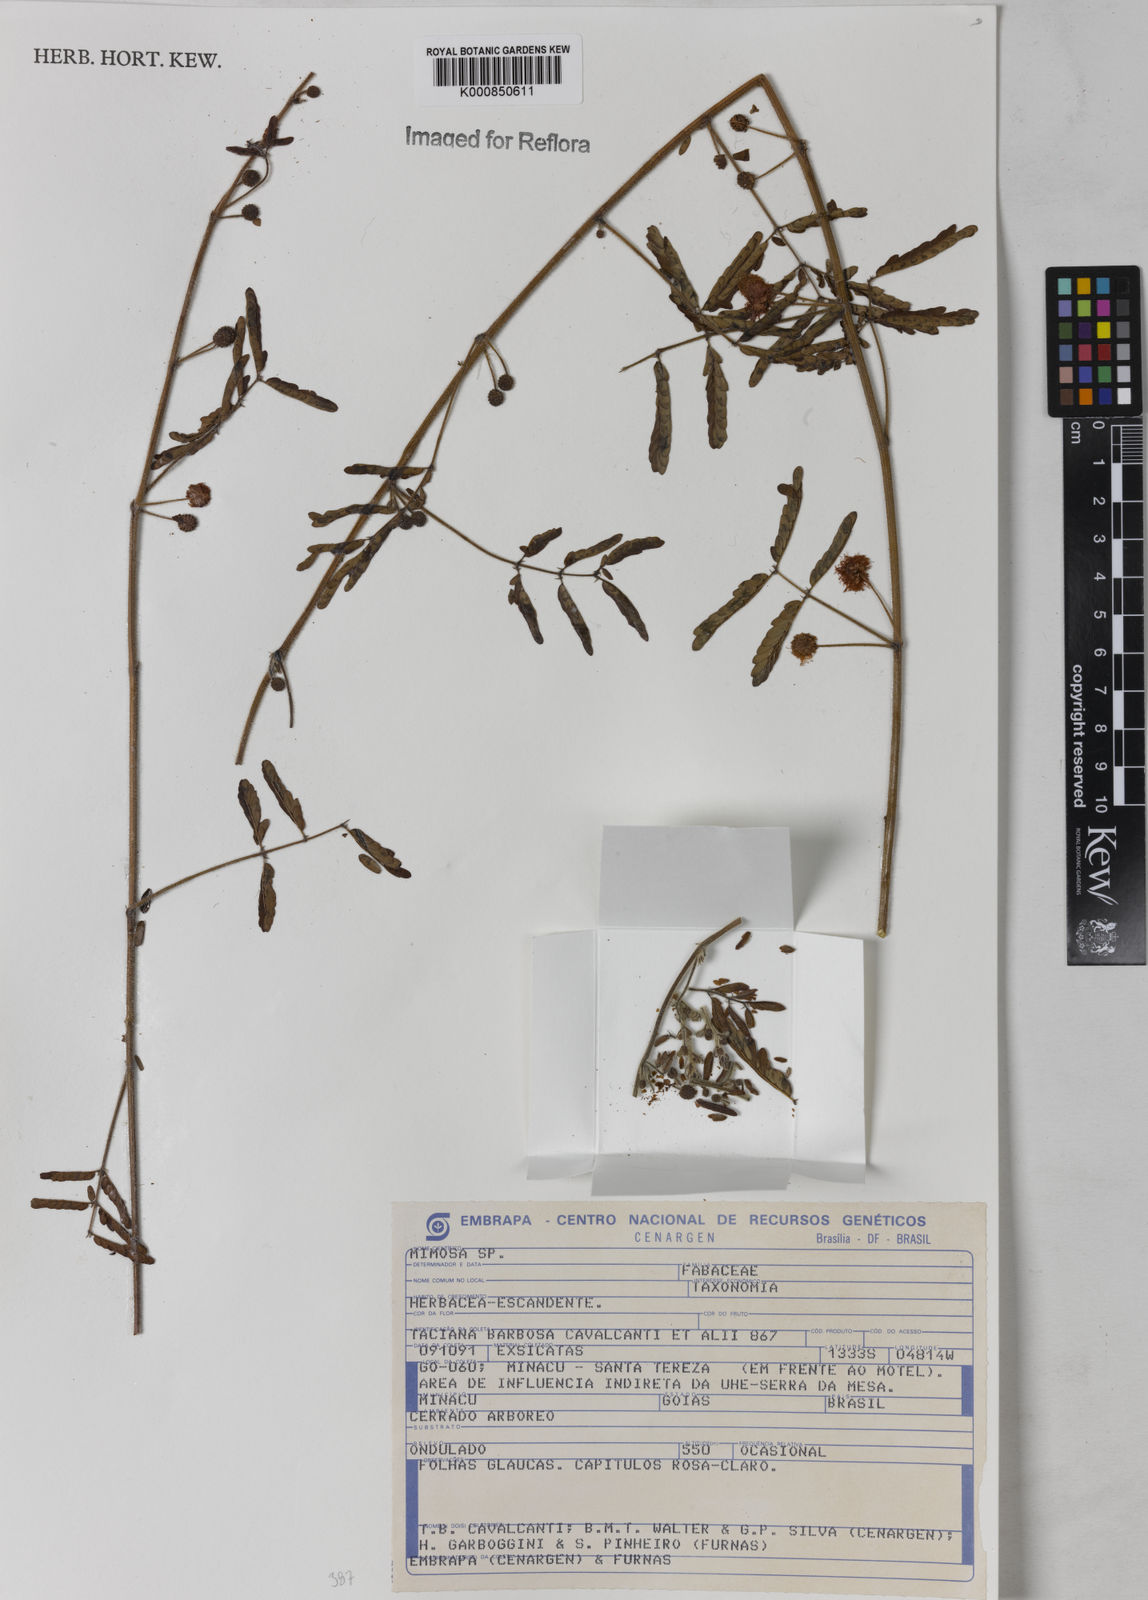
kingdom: Plantae
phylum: Tracheophyta
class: Magnoliopsida
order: Fabales
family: Fabaceae
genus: Mimosa
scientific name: Mimosa gracilis
